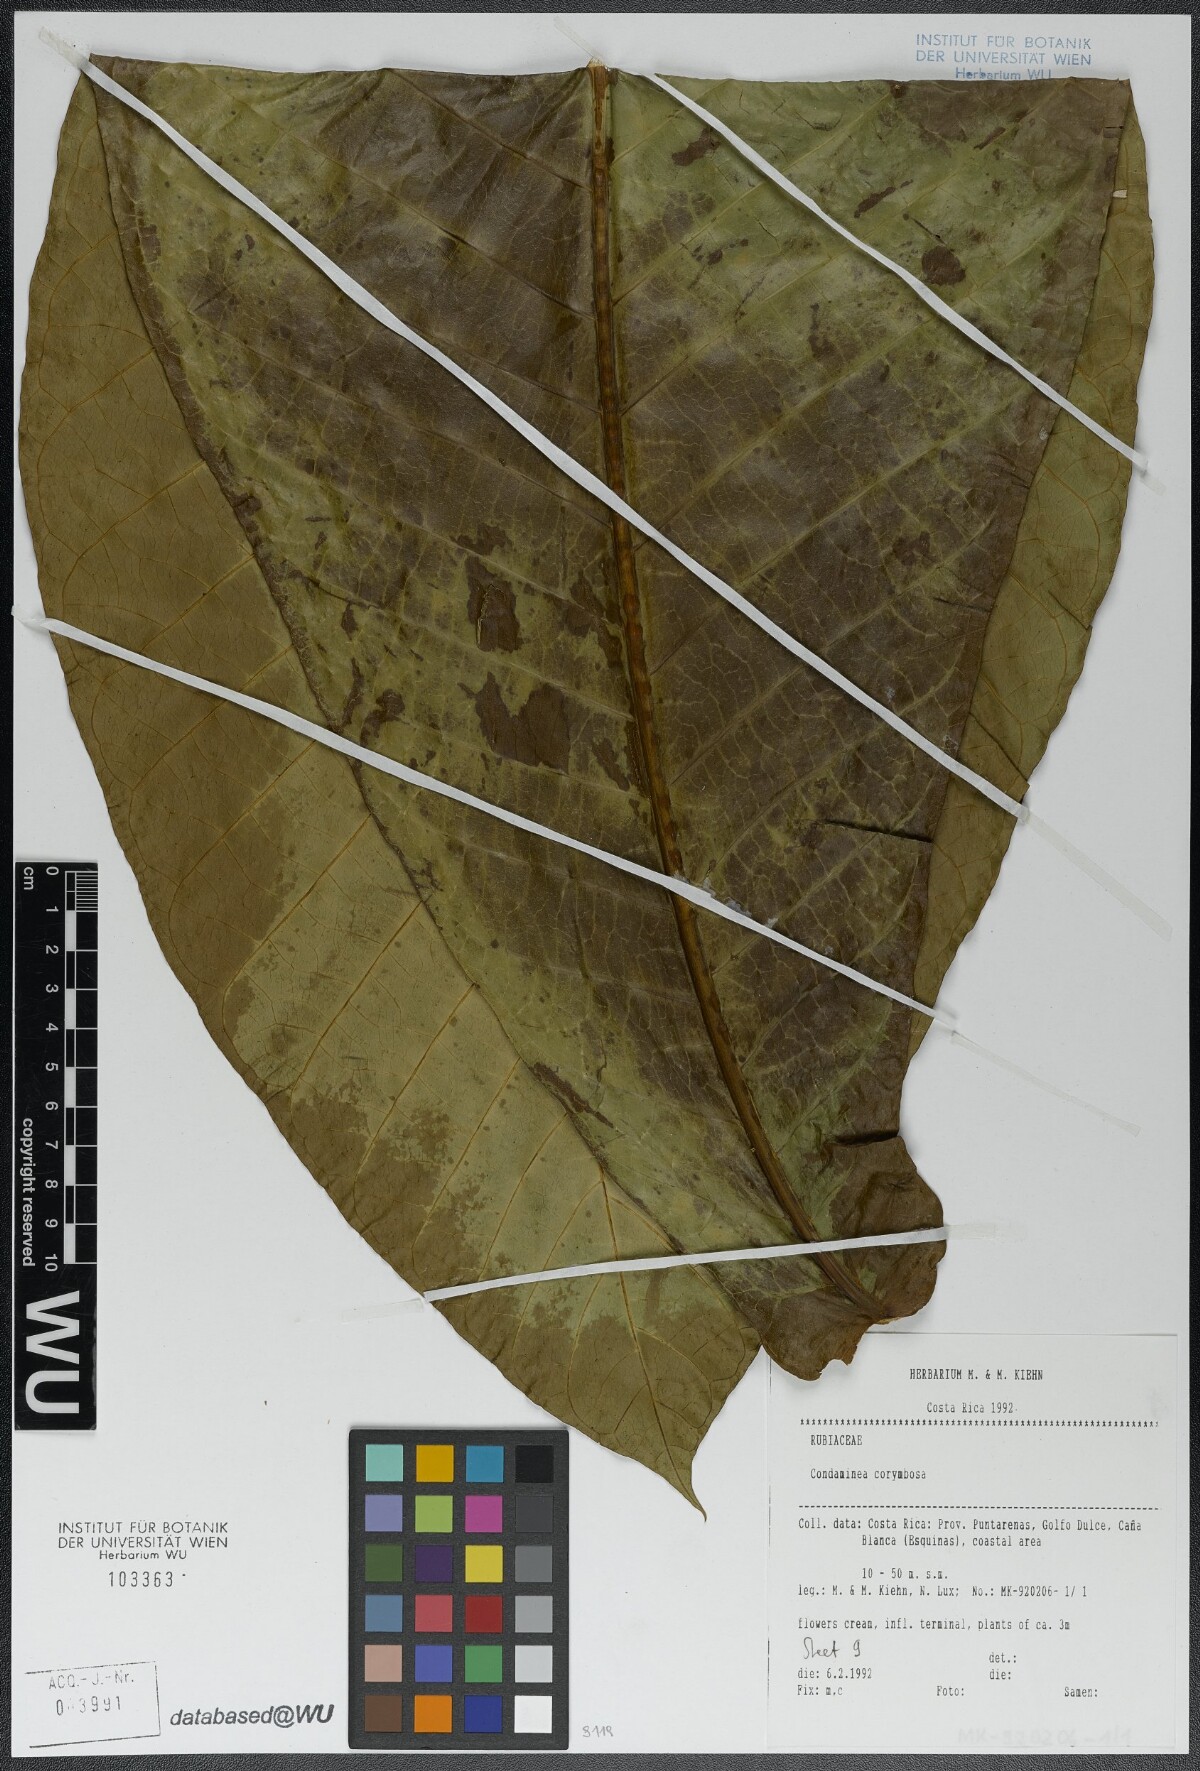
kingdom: Plantae
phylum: Tracheophyta
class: Magnoliopsida
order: Gentianales
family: Rubiaceae
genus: Condaminea
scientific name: Condaminea corymbosa
